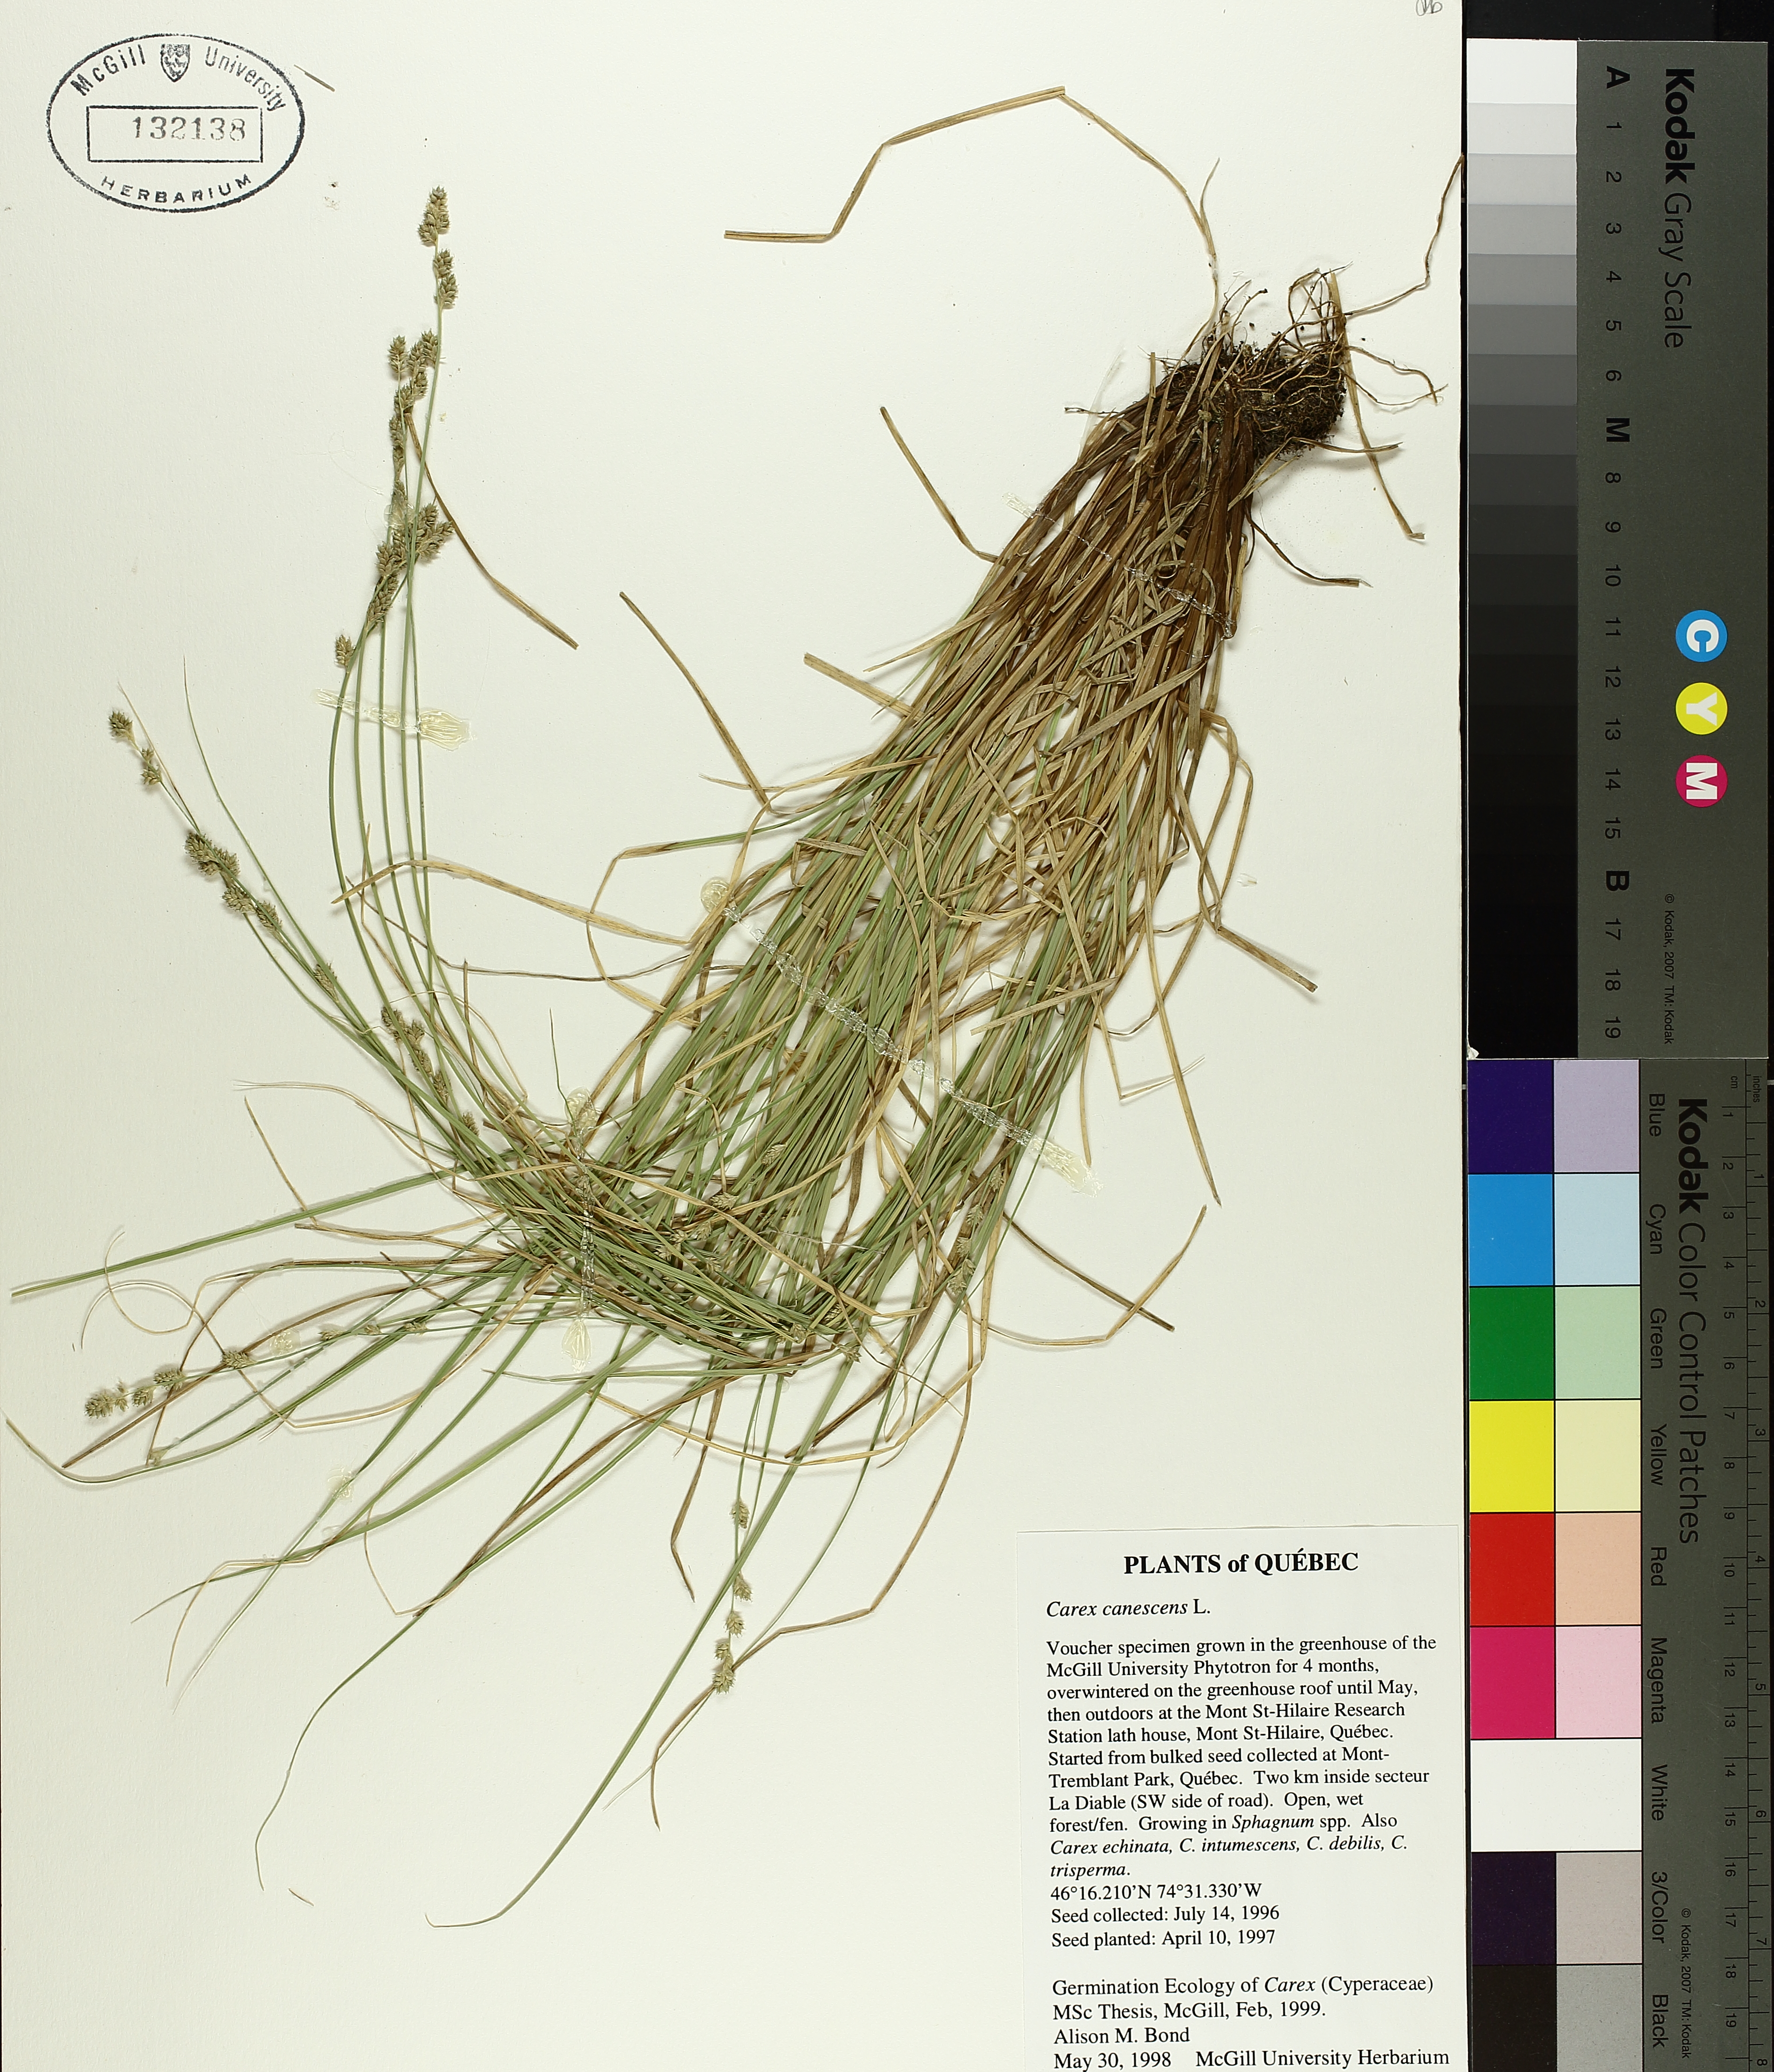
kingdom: Plantae
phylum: Tracheophyta
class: Liliopsida
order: Poales
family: Cyperaceae
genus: Carex
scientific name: Carex canescens
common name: White sedge
